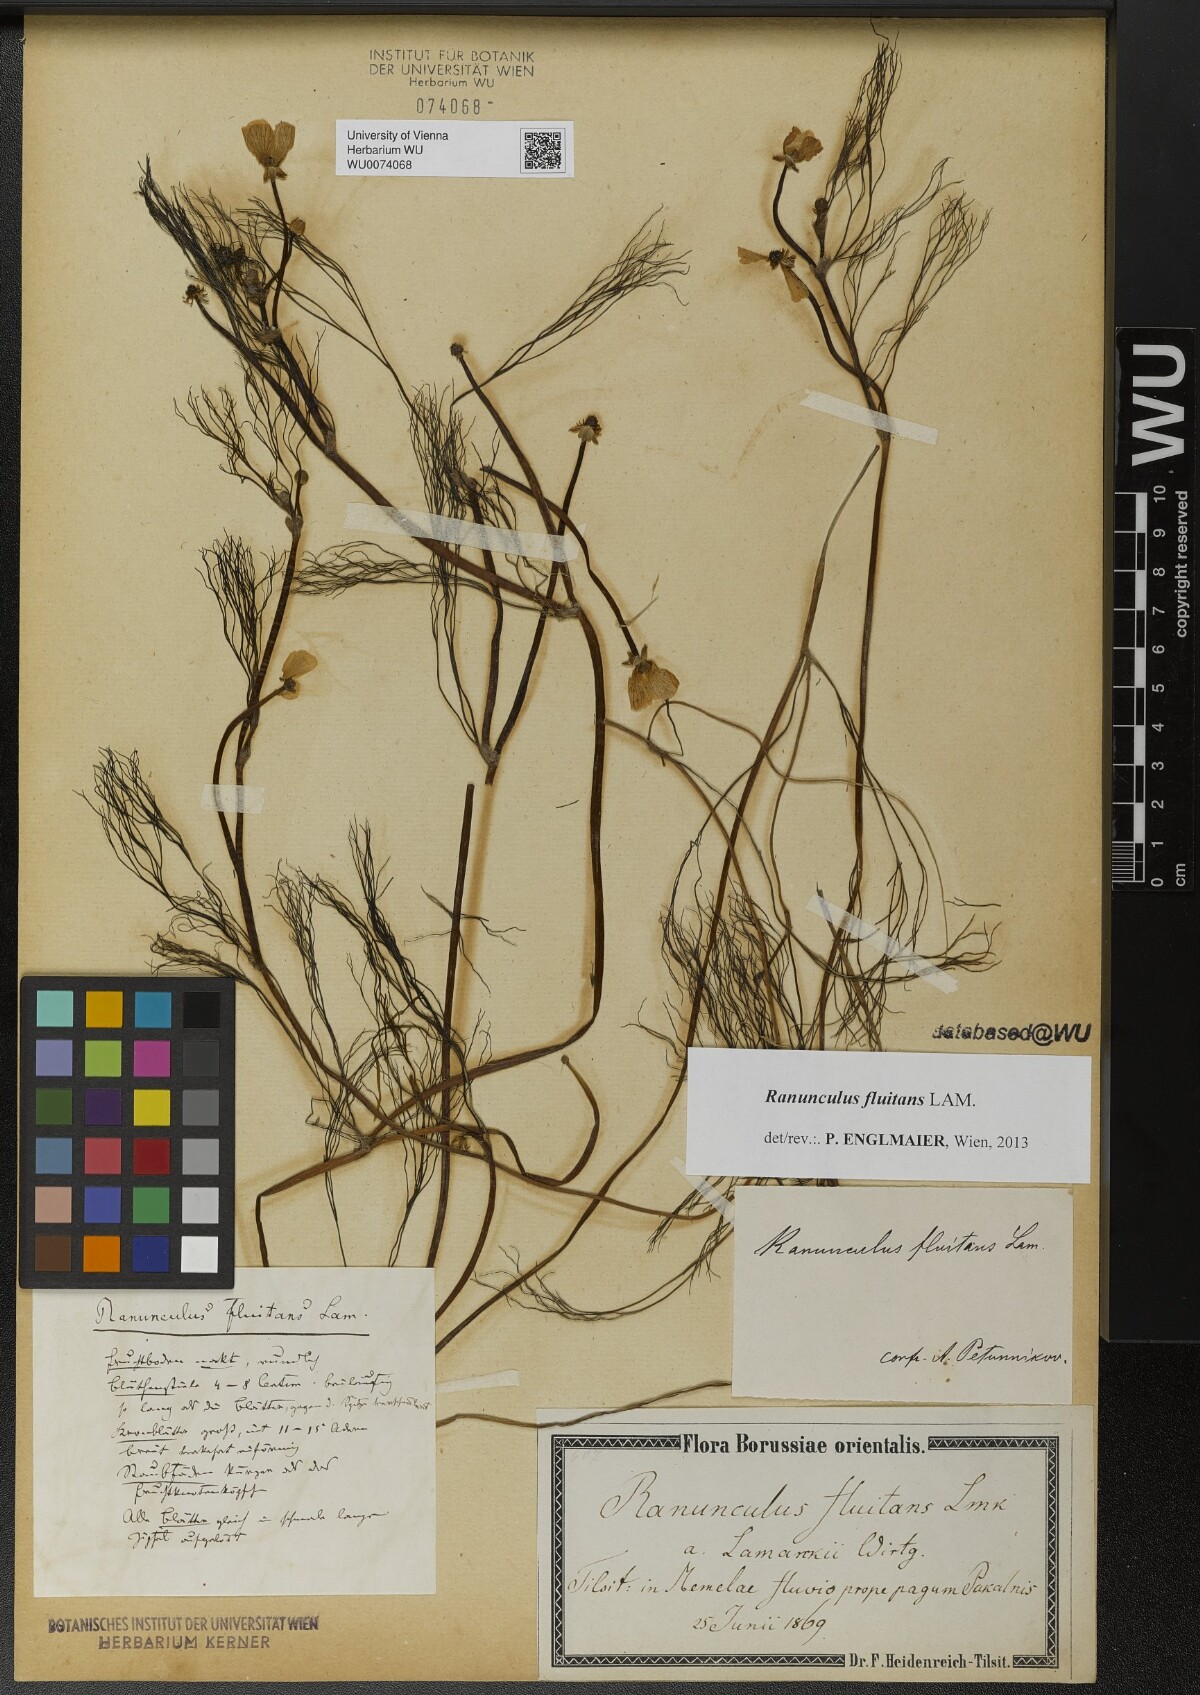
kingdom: Plantae
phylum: Tracheophyta
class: Magnoliopsida
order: Ranunculales
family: Ranunculaceae
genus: Ranunculus
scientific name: Ranunculus fluitans
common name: River water-crowfoot
